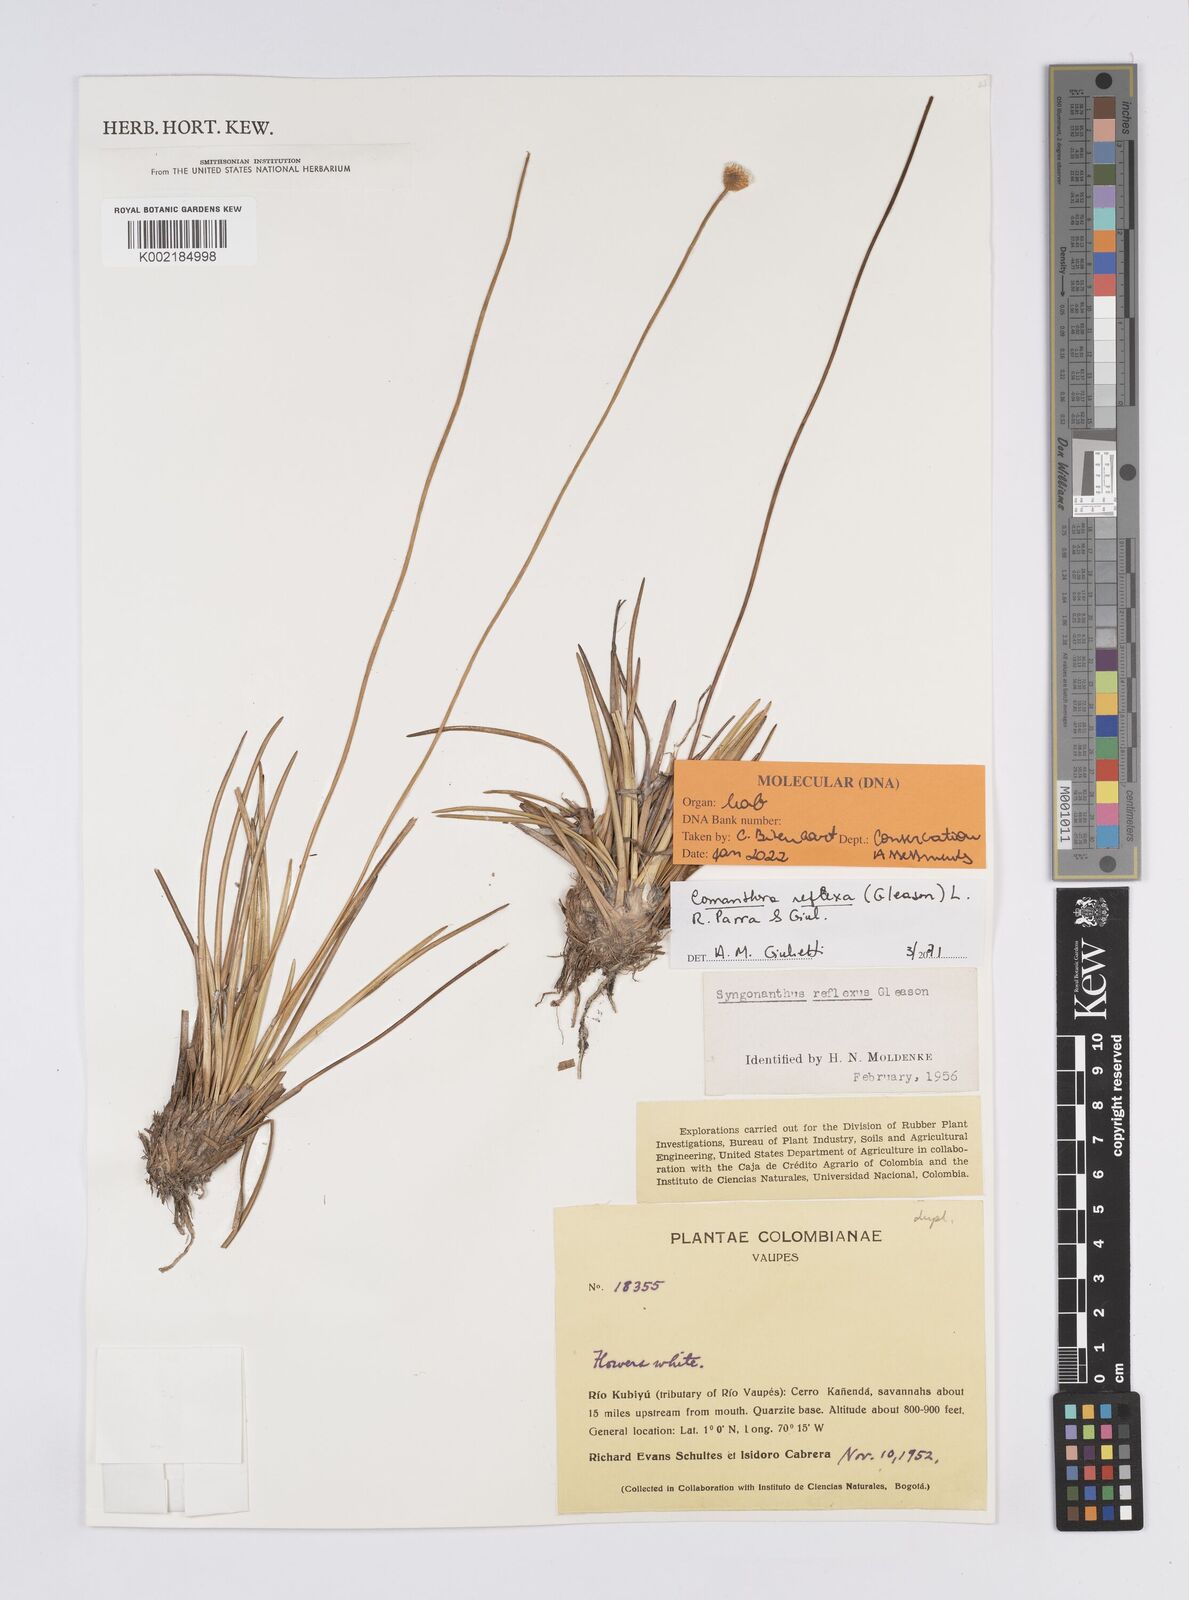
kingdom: Plantae
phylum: Tracheophyta
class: Liliopsida
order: Poales
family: Eriocaulaceae
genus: Comanthera
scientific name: Comanthera reflexa
